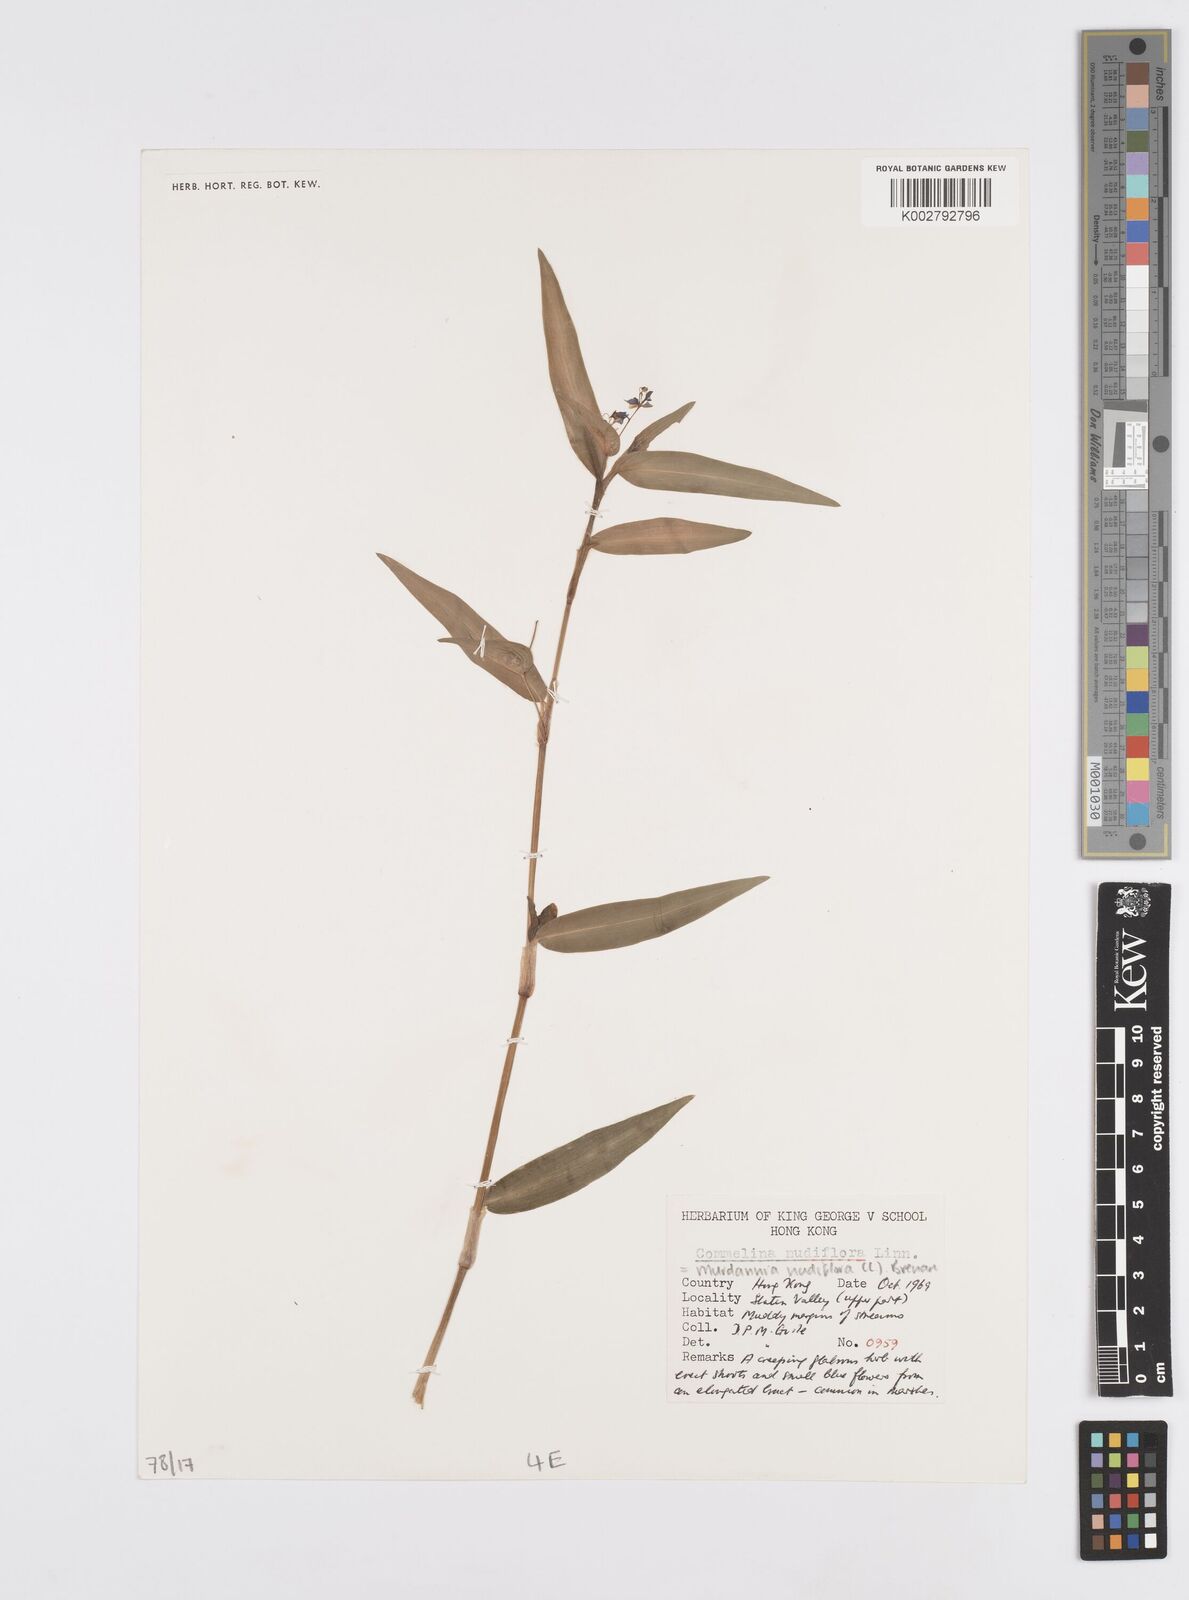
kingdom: Plantae
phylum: Tracheophyta
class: Liliopsida
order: Commelinales
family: Commelinaceae
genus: Murdannia
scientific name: Murdannia nudiflora
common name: Nakedstem dewflower
